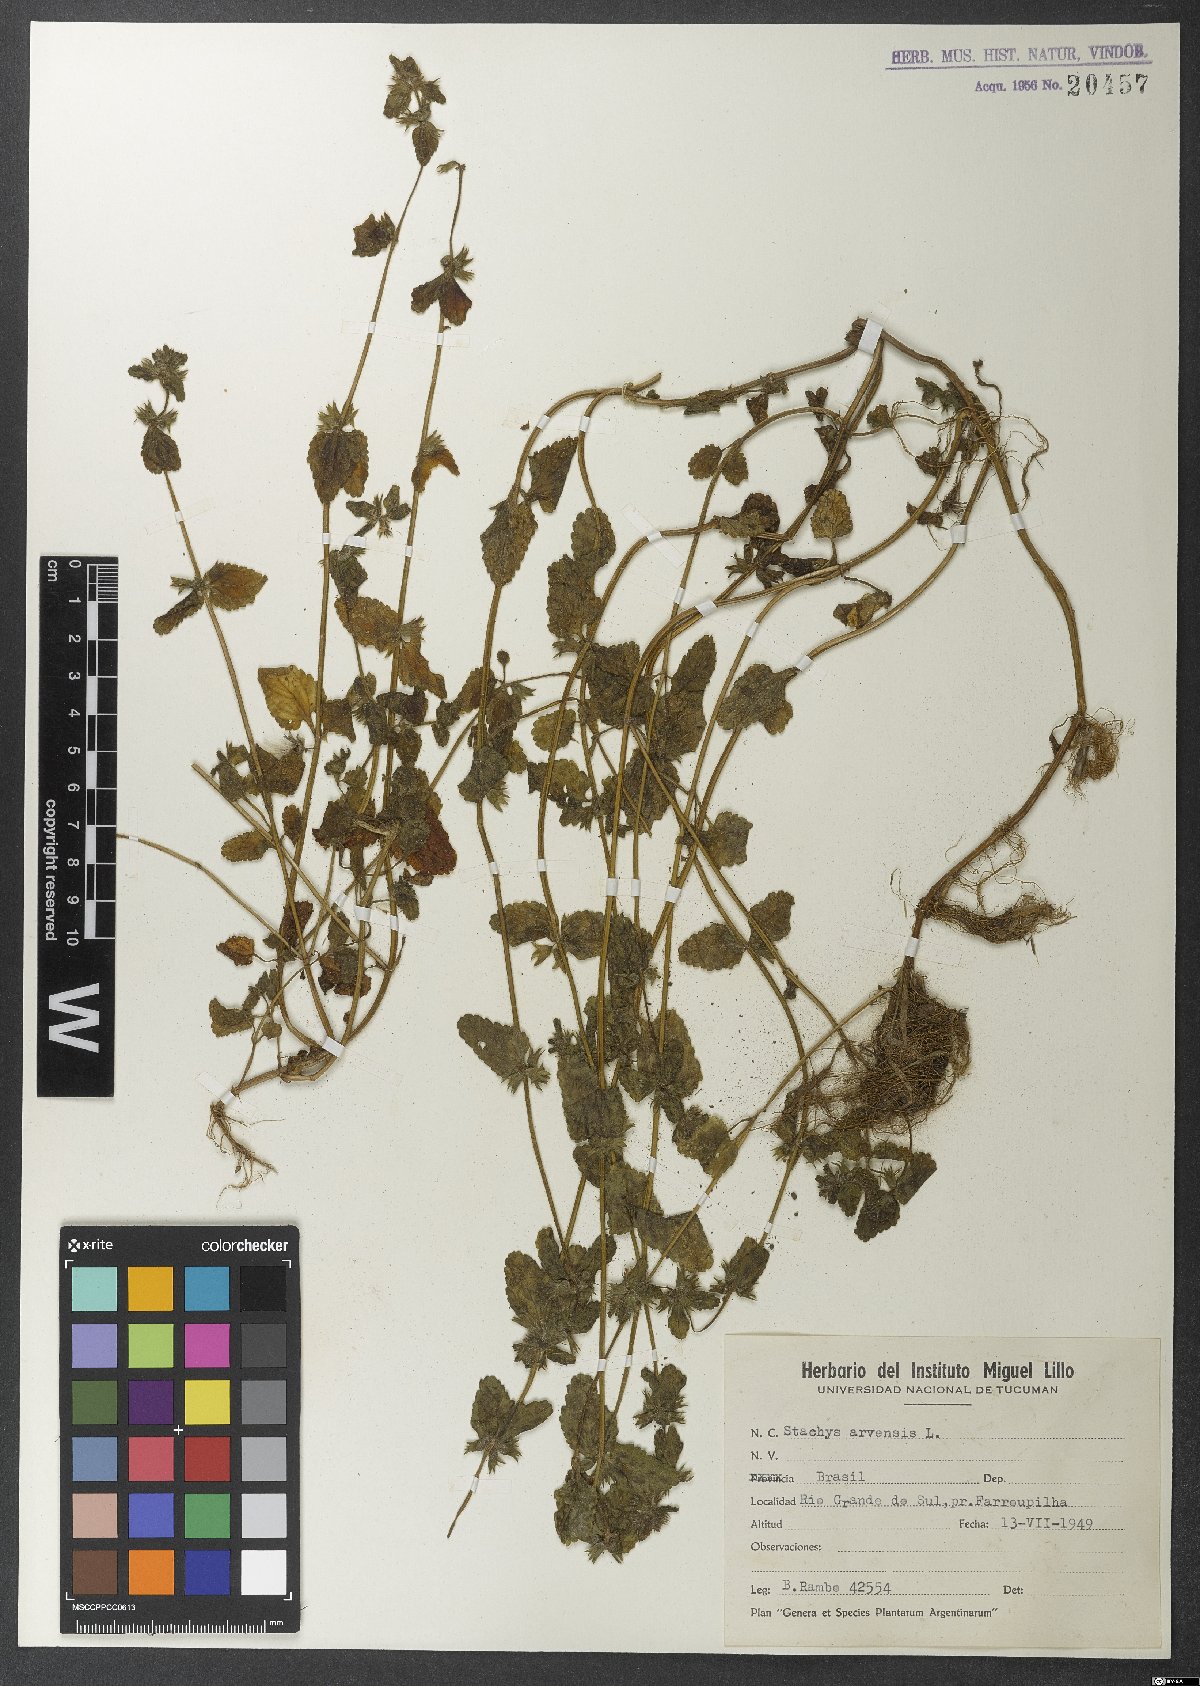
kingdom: Plantae
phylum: Tracheophyta
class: Magnoliopsida
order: Lamiales
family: Lamiaceae
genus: Stachys
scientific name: Stachys arvensis
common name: Field woundwort
